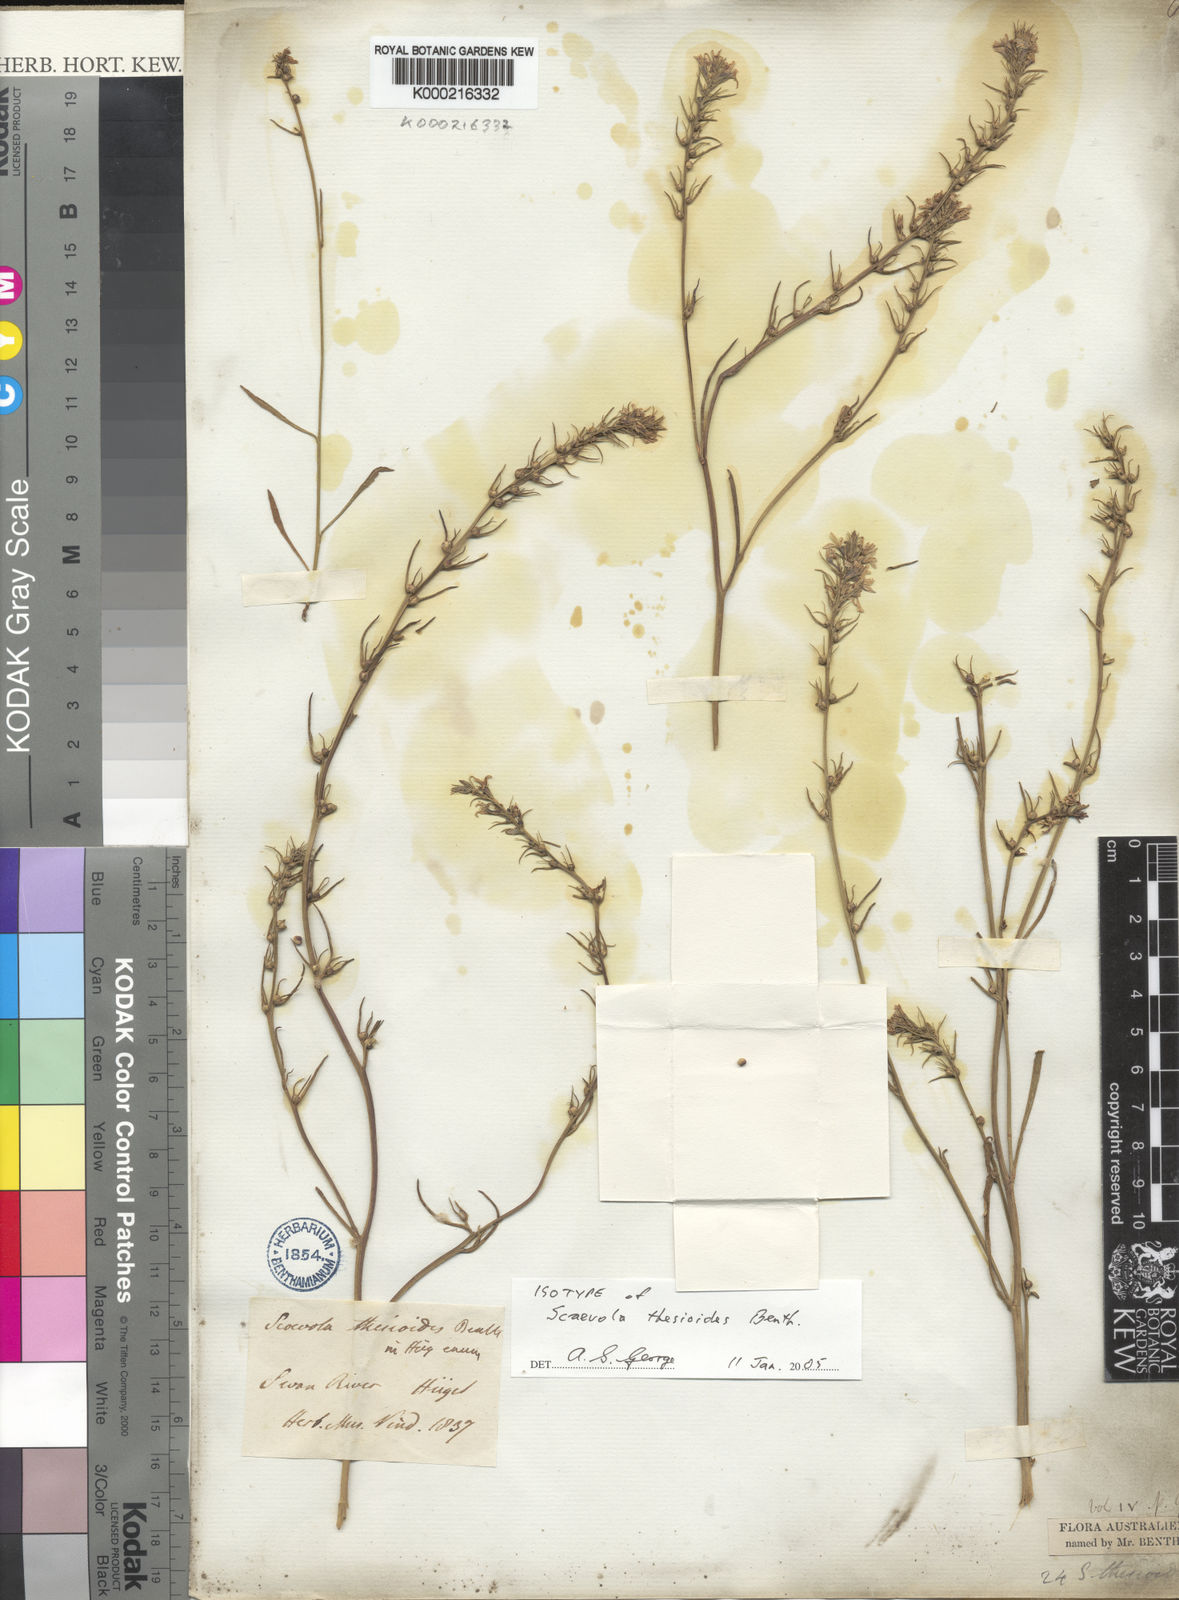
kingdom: Plantae
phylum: Tracheophyta
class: Magnoliopsida
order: Asterales
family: Goodeniaceae
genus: Scaevola
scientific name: Scaevola thesioides
